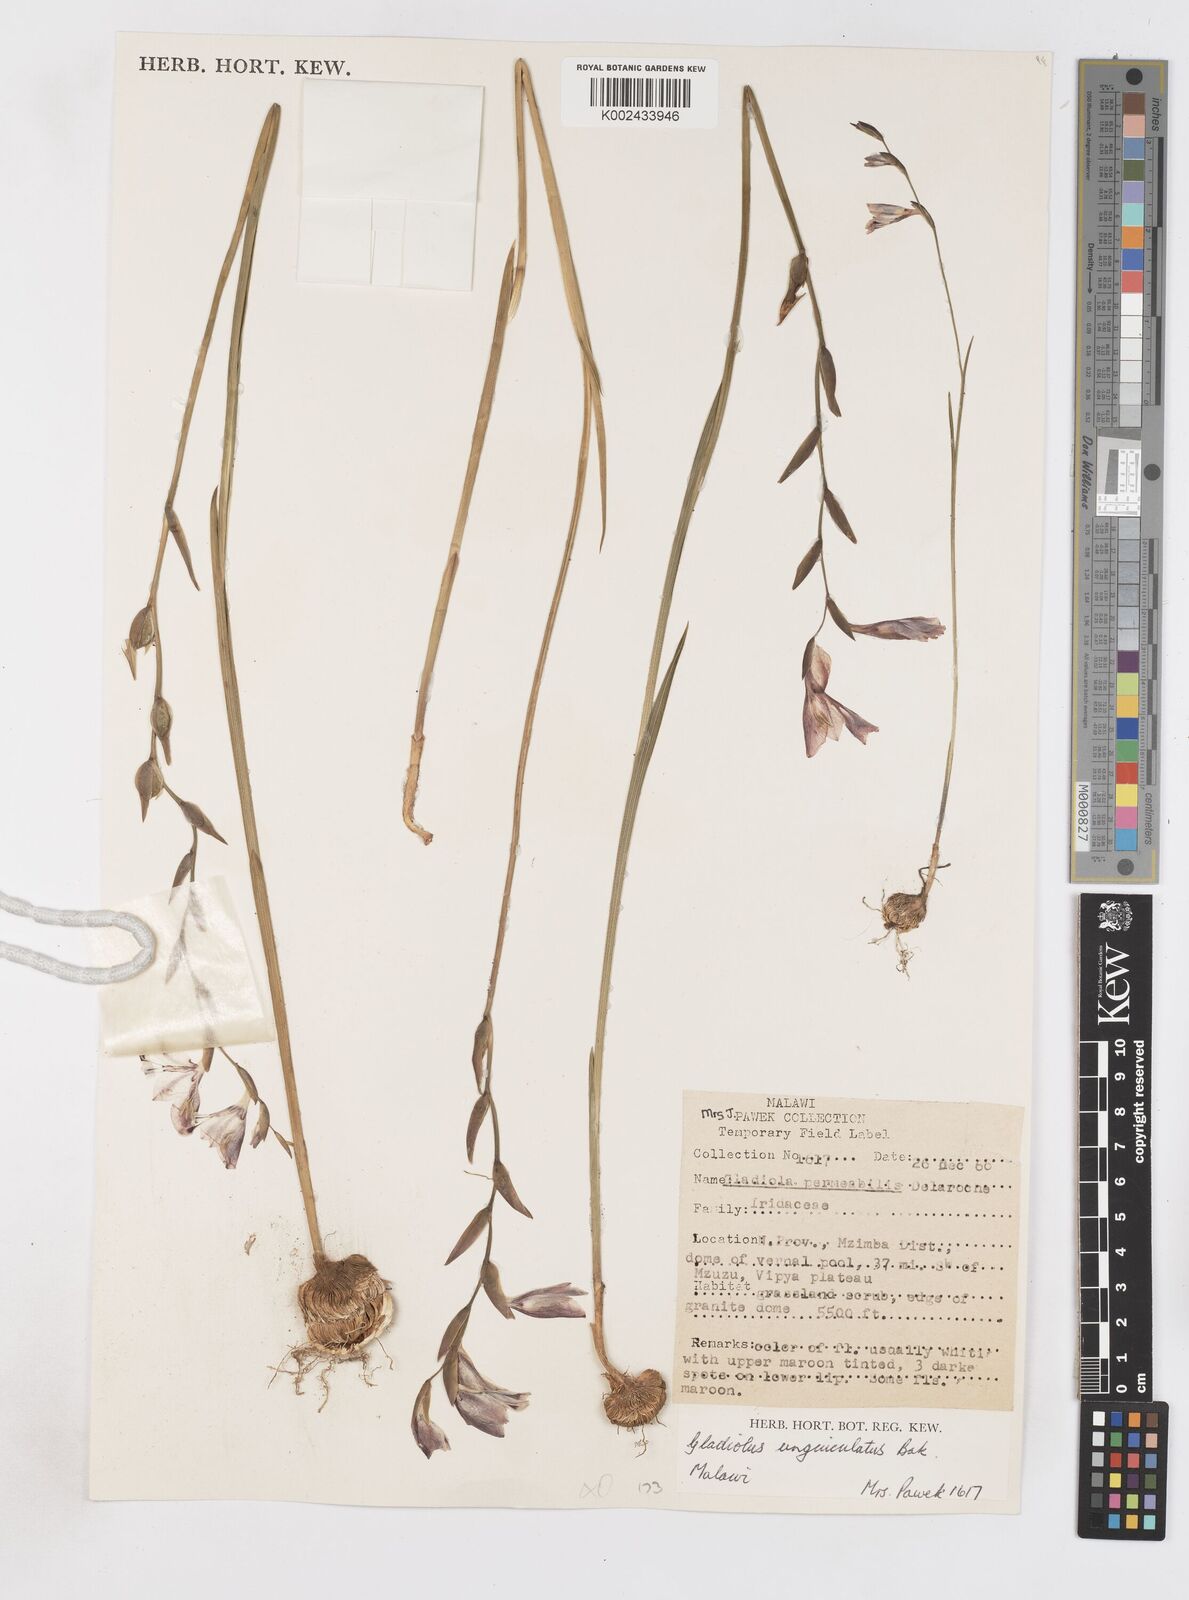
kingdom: Plantae
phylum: Tracheophyta
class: Liliopsida
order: Asparagales
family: Iridaceae
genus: Gladiolus
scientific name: Gladiolus atropurpureus
